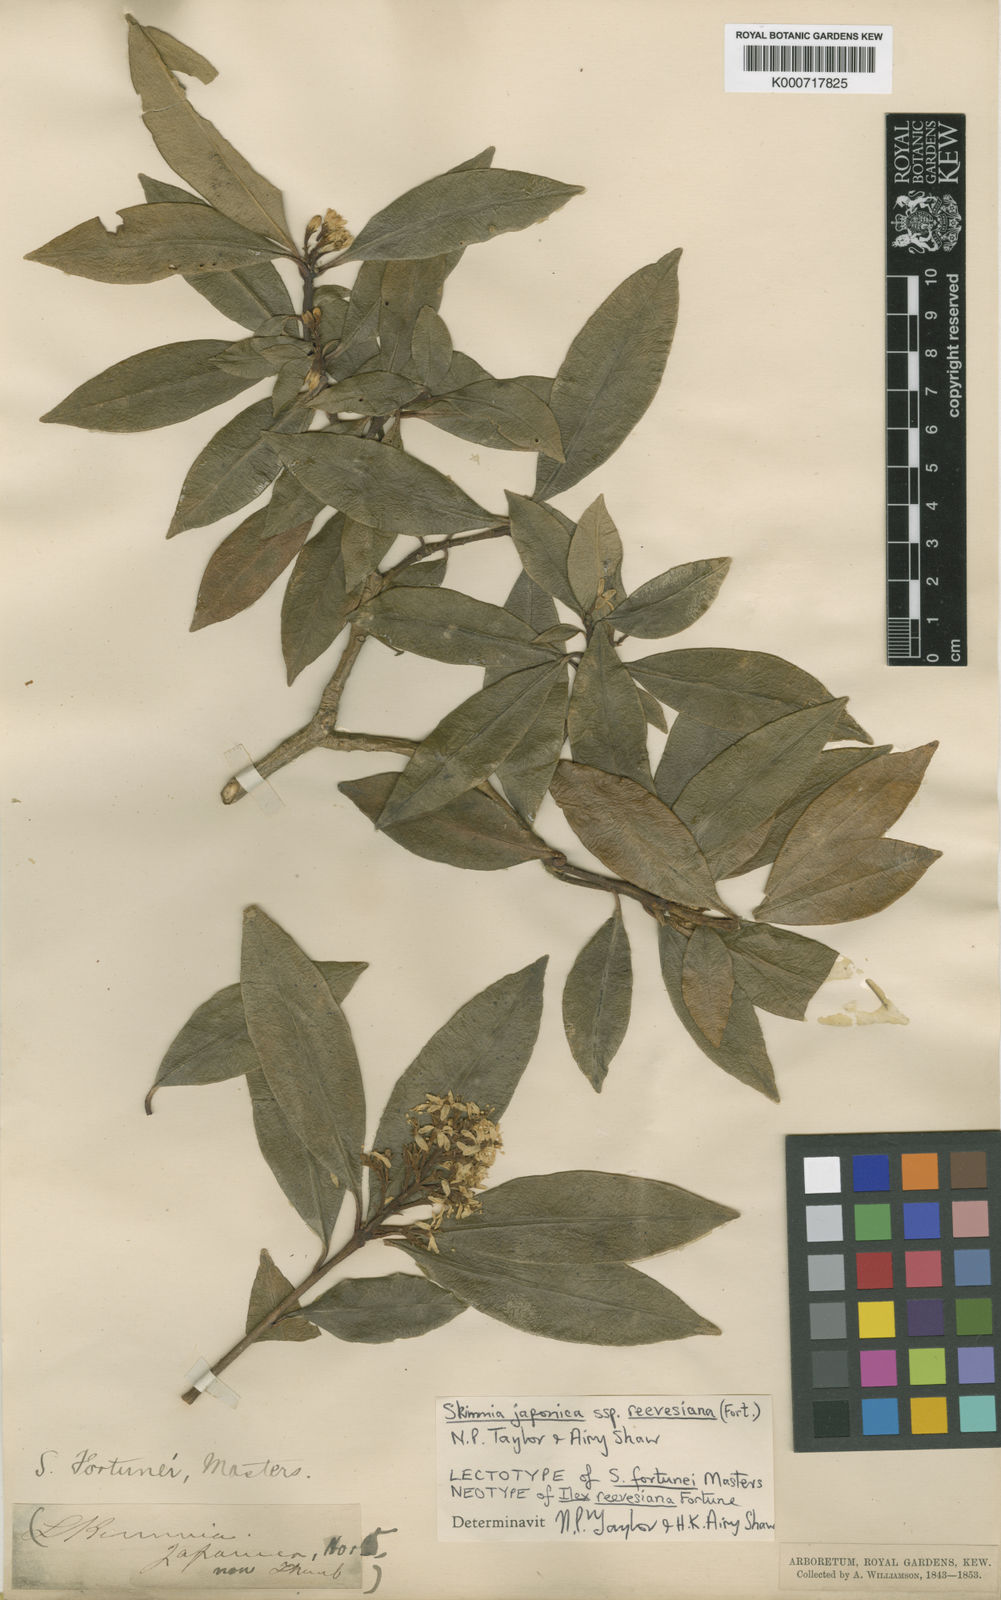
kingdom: Plantae
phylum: Tracheophyta
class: Magnoliopsida
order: Sapindales
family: Rutaceae
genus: Skimmia
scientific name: Skimmia reevesiana
